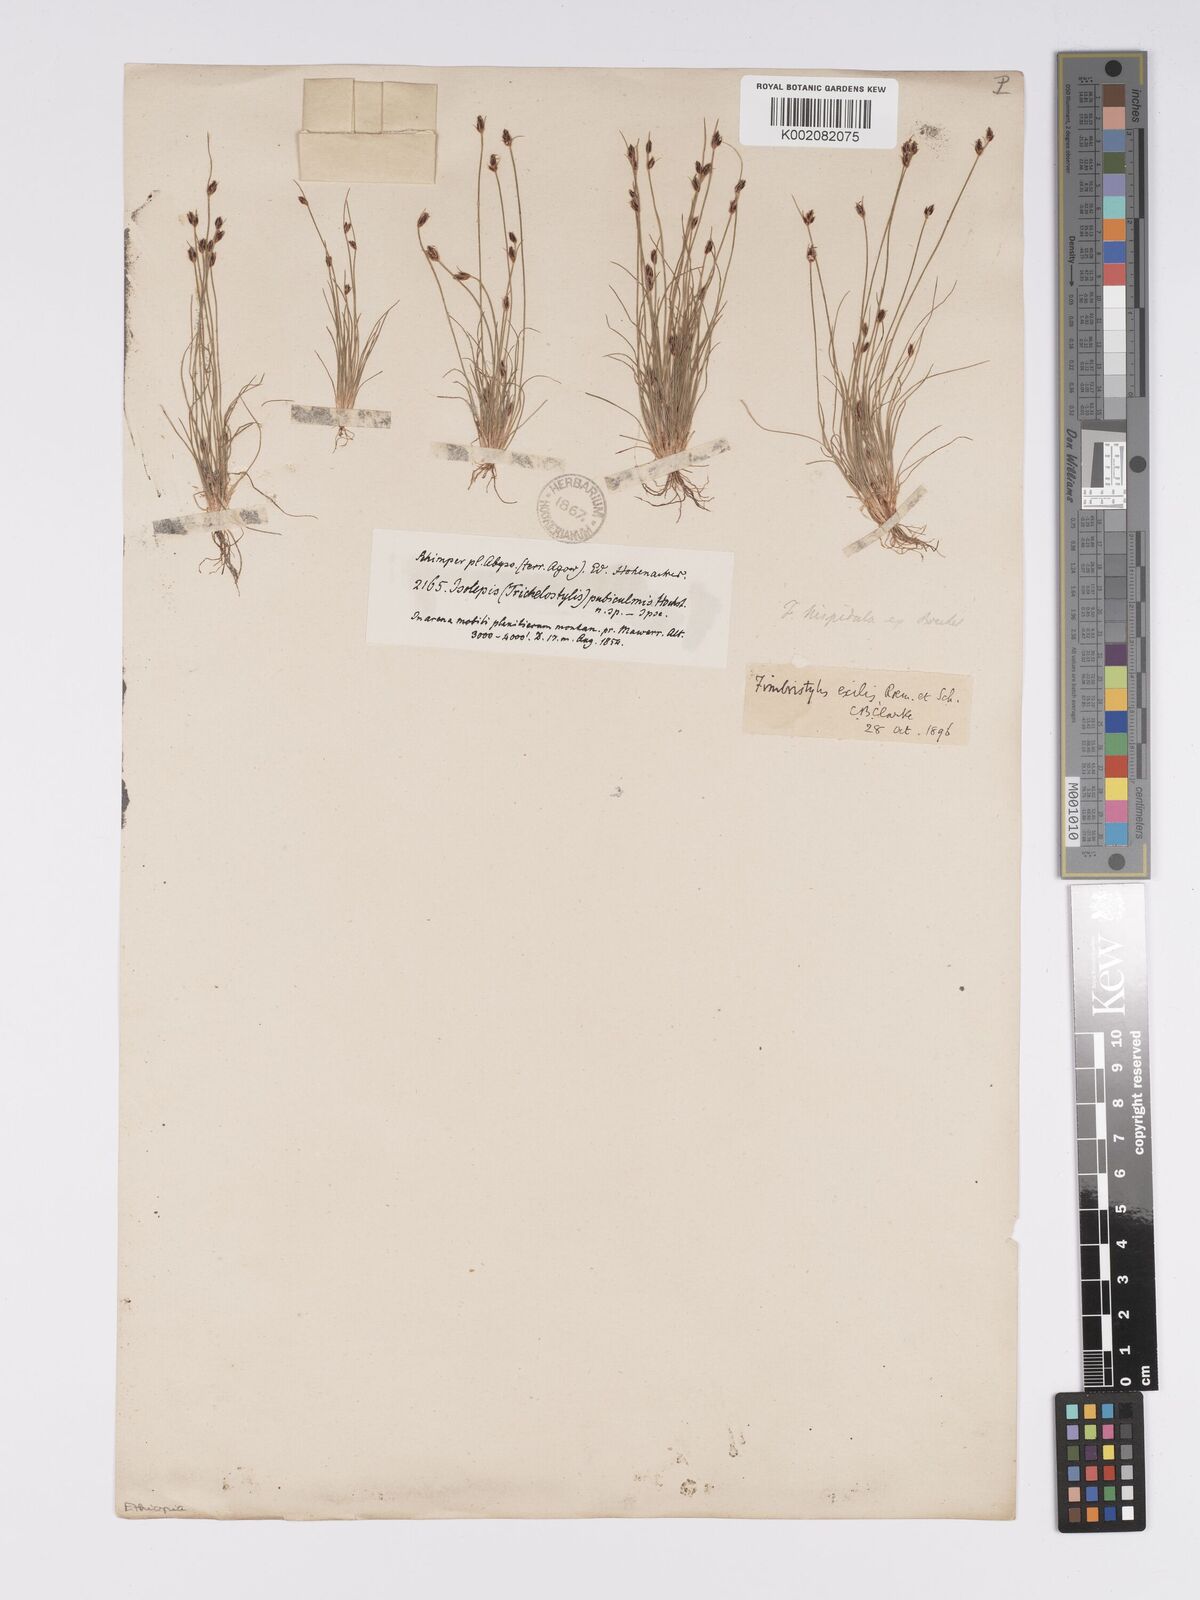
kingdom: Plantae
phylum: Tracheophyta
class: Liliopsida
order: Poales
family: Cyperaceae
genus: Bulbostylis
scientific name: Bulbostylis hispidula
